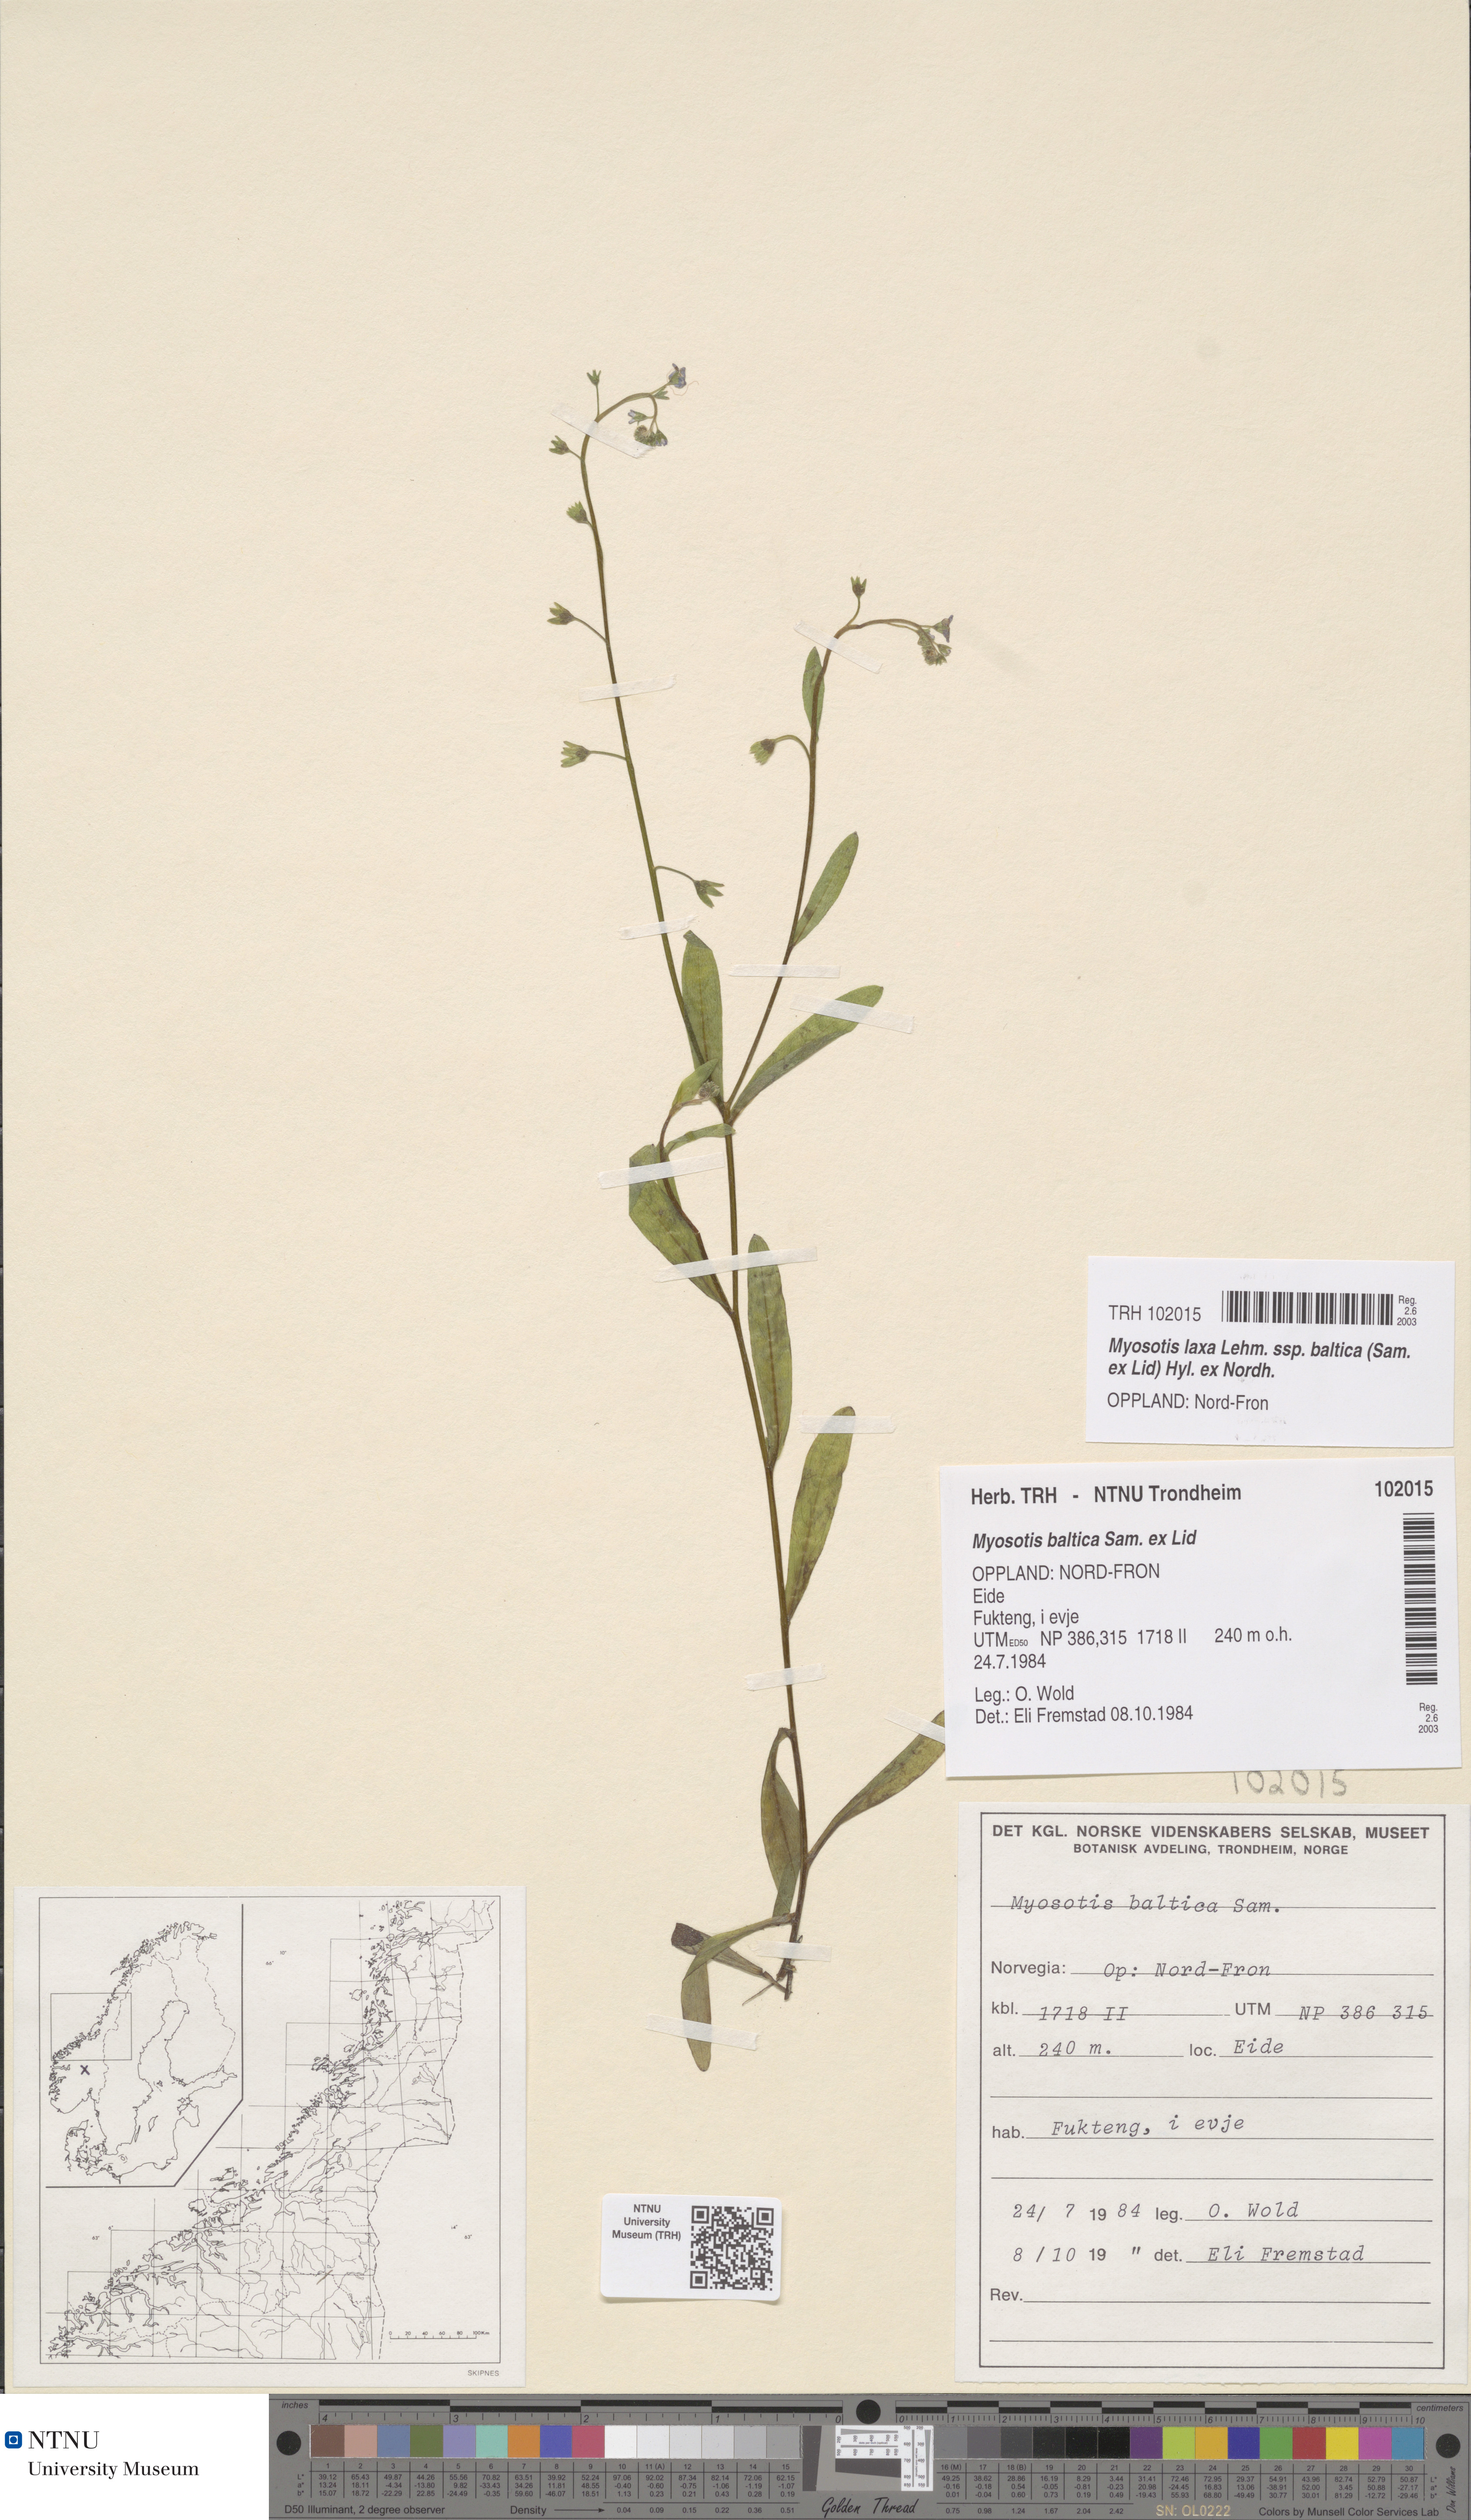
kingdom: Plantae
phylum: Tracheophyta
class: Magnoliopsida
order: Boraginales
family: Boraginaceae
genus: Myosotis
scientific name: Myosotis laxa
